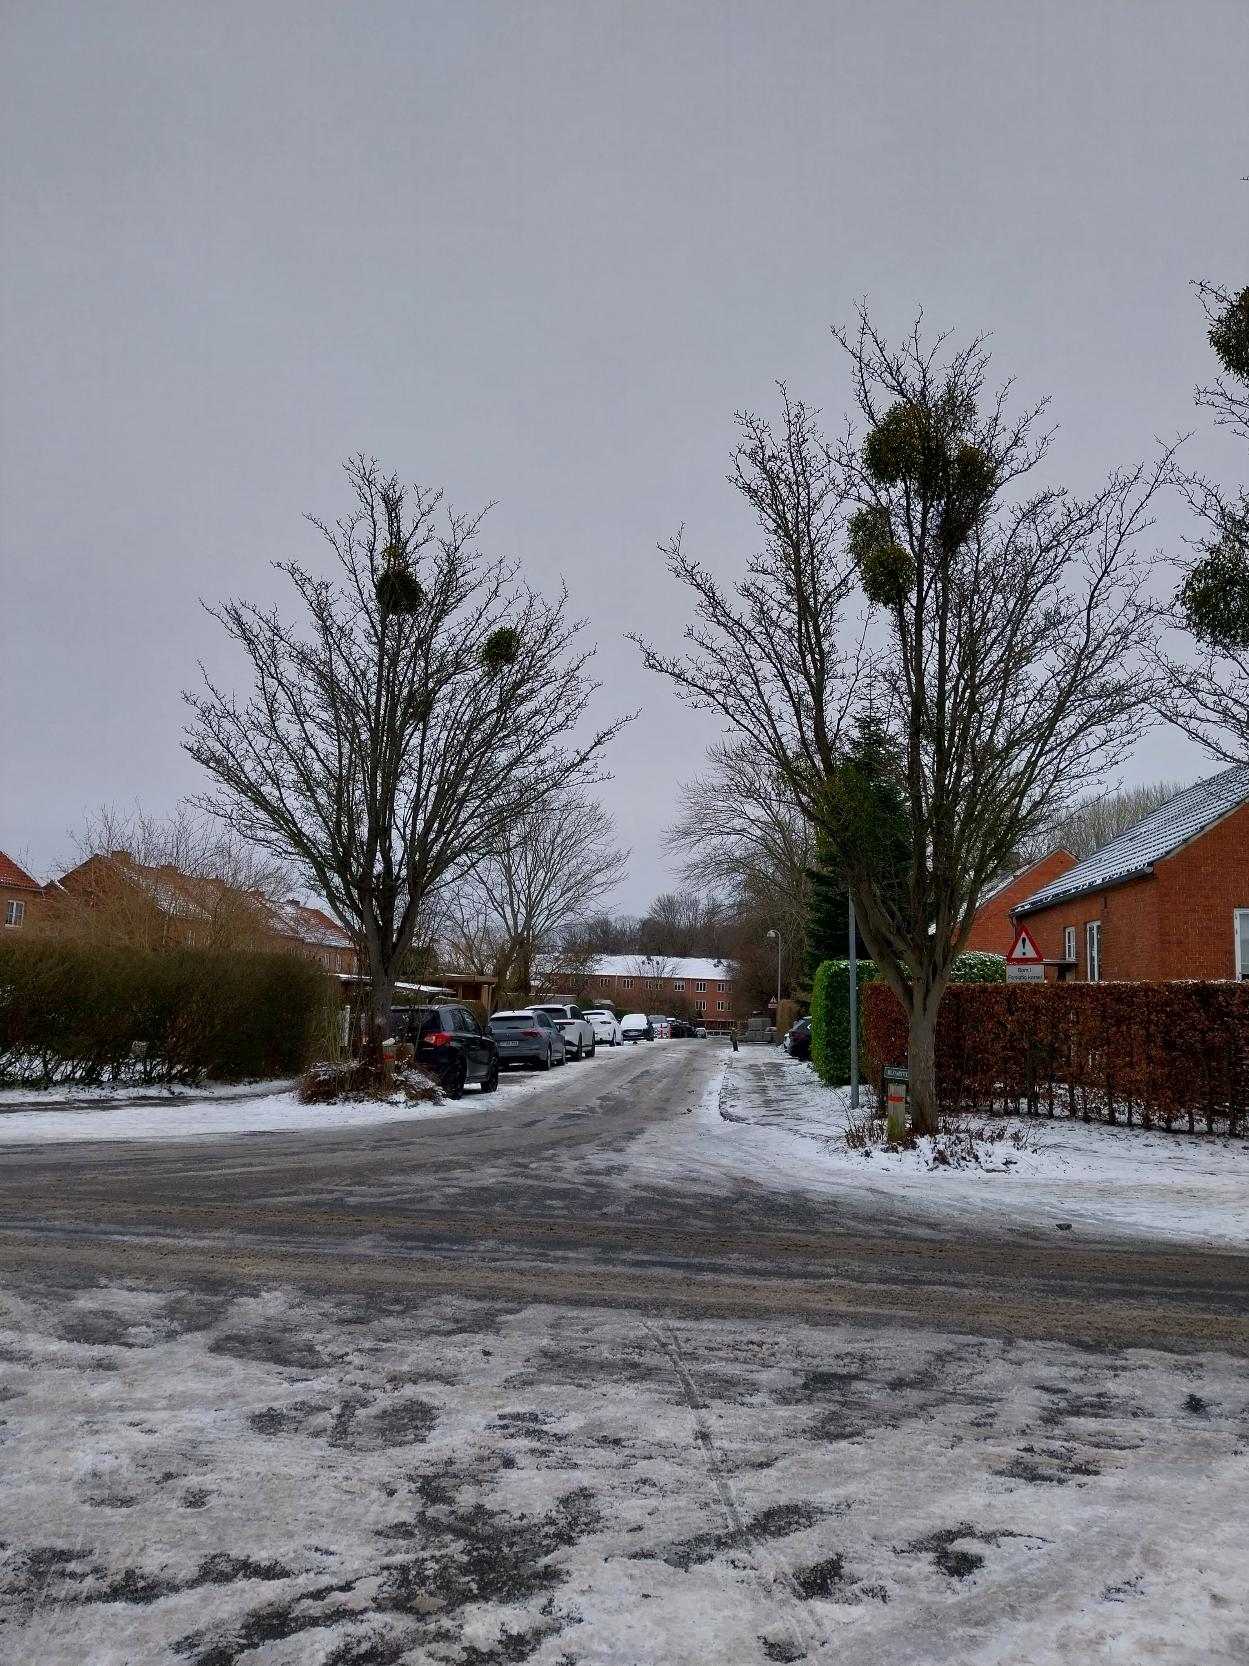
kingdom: Plantae
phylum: Tracheophyta
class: Magnoliopsida
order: Santalales
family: Viscaceae
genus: Viscum
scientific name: Viscum album
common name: Mistelten
